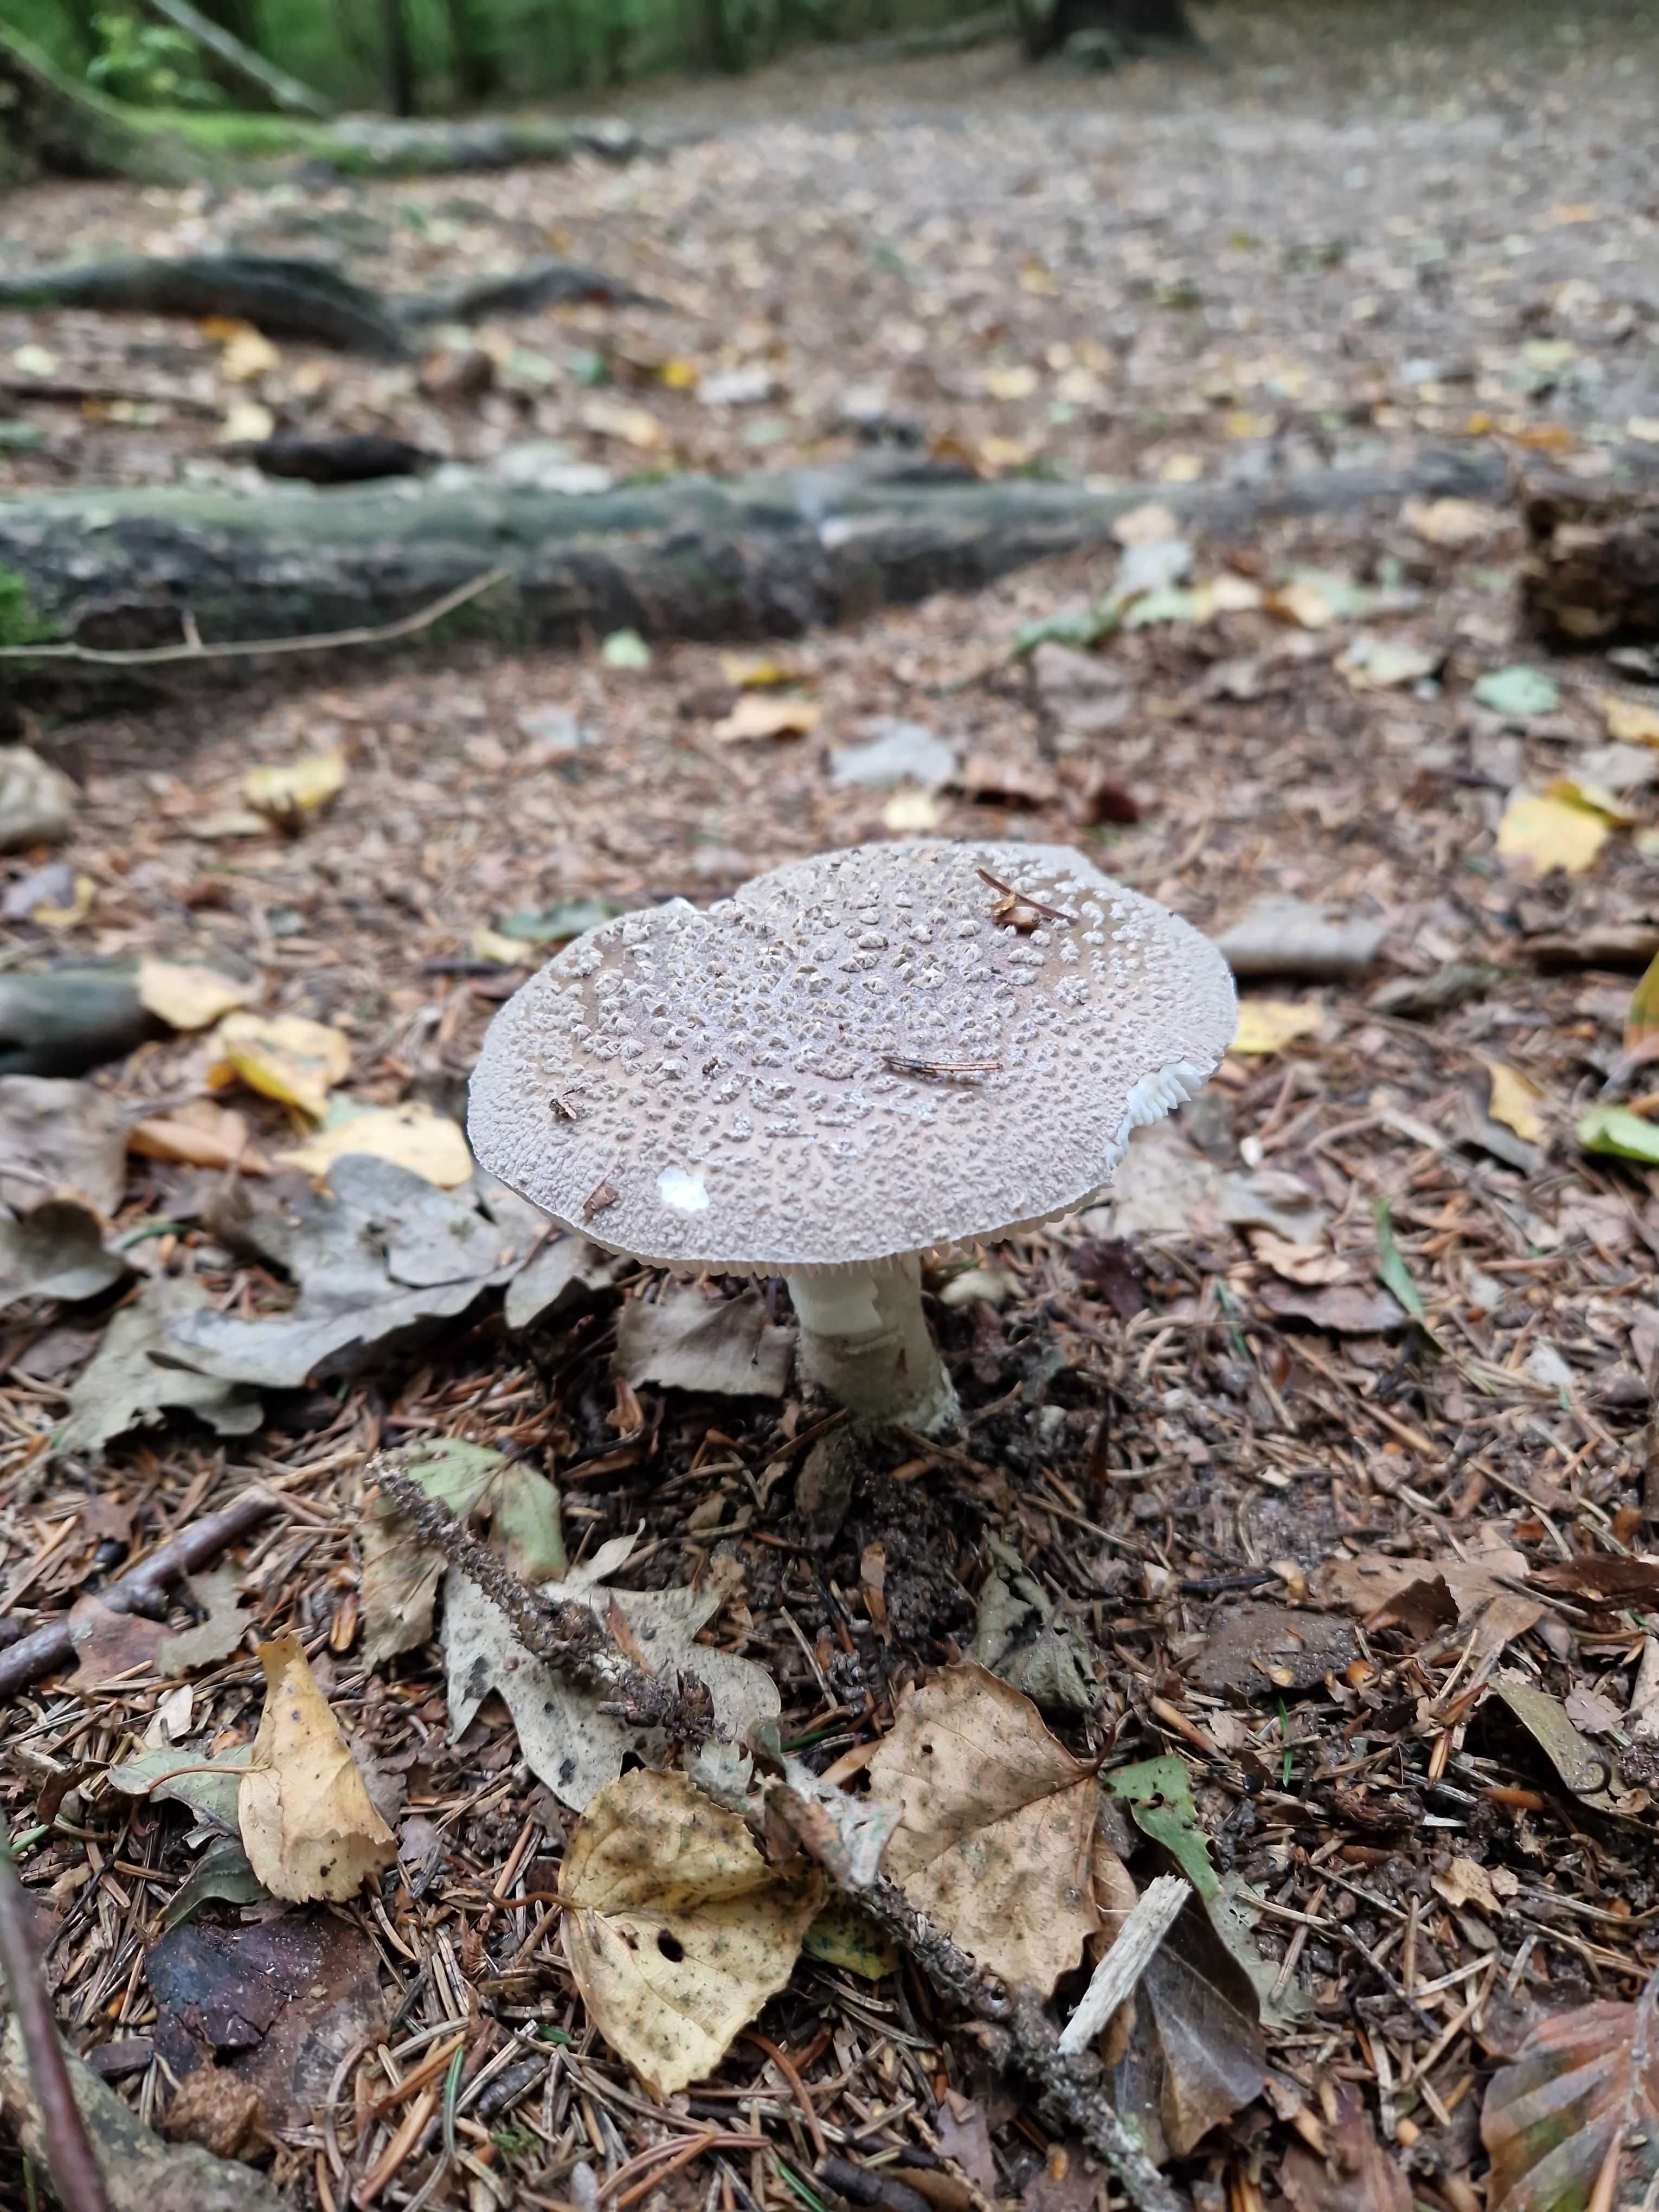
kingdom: Fungi
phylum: Basidiomycota
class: Agaricomycetes
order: Agaricales
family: Amanitaceae
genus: Amanita
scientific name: Amanita
